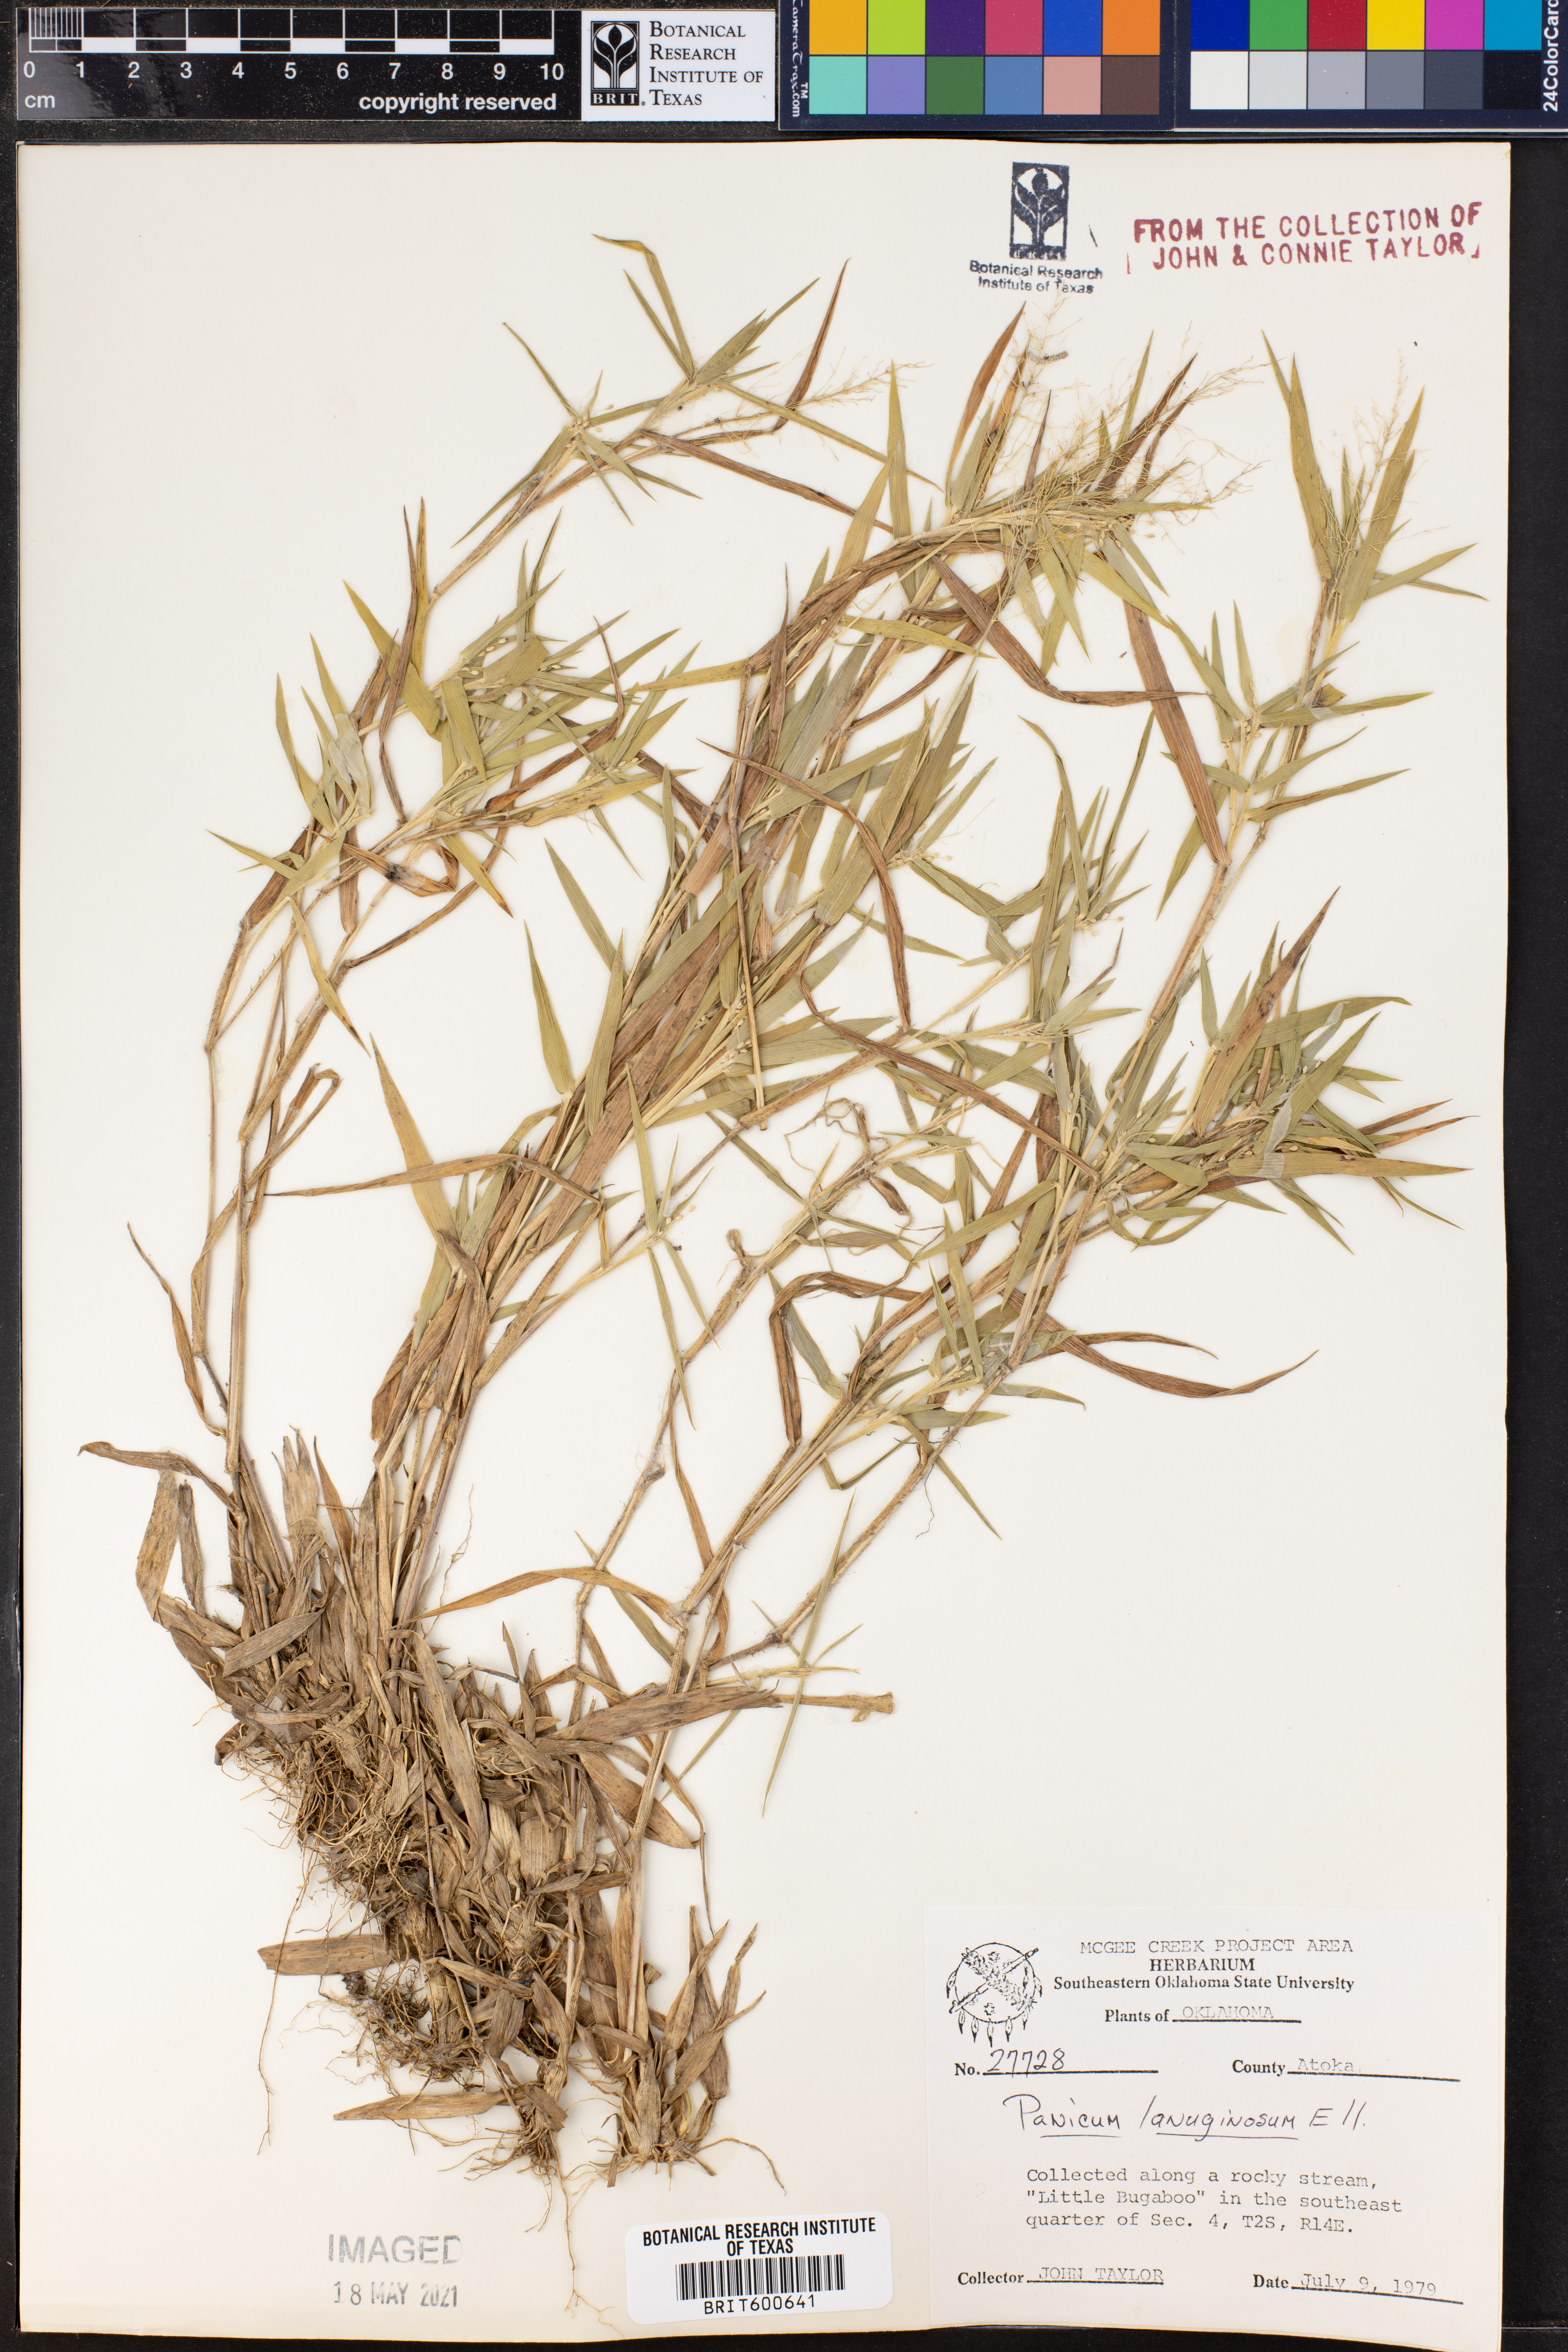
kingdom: Plantae
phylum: Tracheophyta
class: Liliopsida
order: Poales
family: Poaceae
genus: Dichanthelium
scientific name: Dichanthelium lanuginosum
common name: Woolly panicgrass
